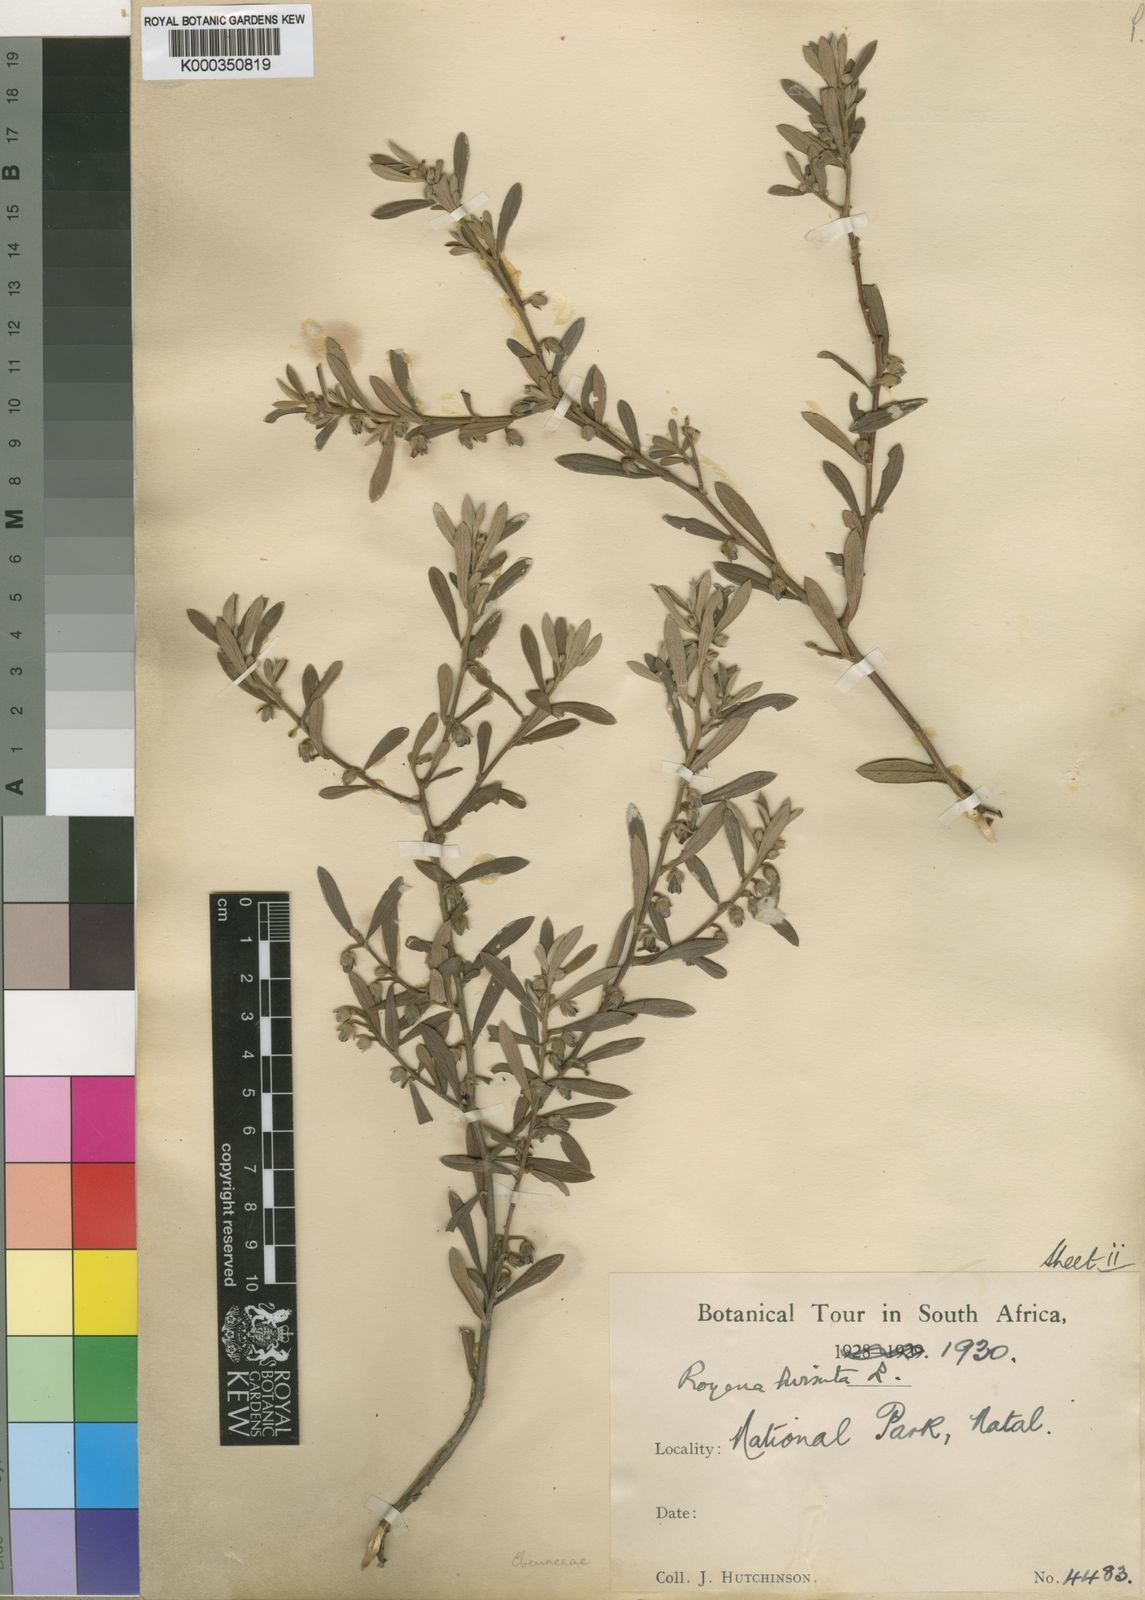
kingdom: Plantae
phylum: Tracheophyta
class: Magnoliopsida
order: Ericales
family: Ebenaceae
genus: Diospyros
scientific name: Diospyros pubescens
